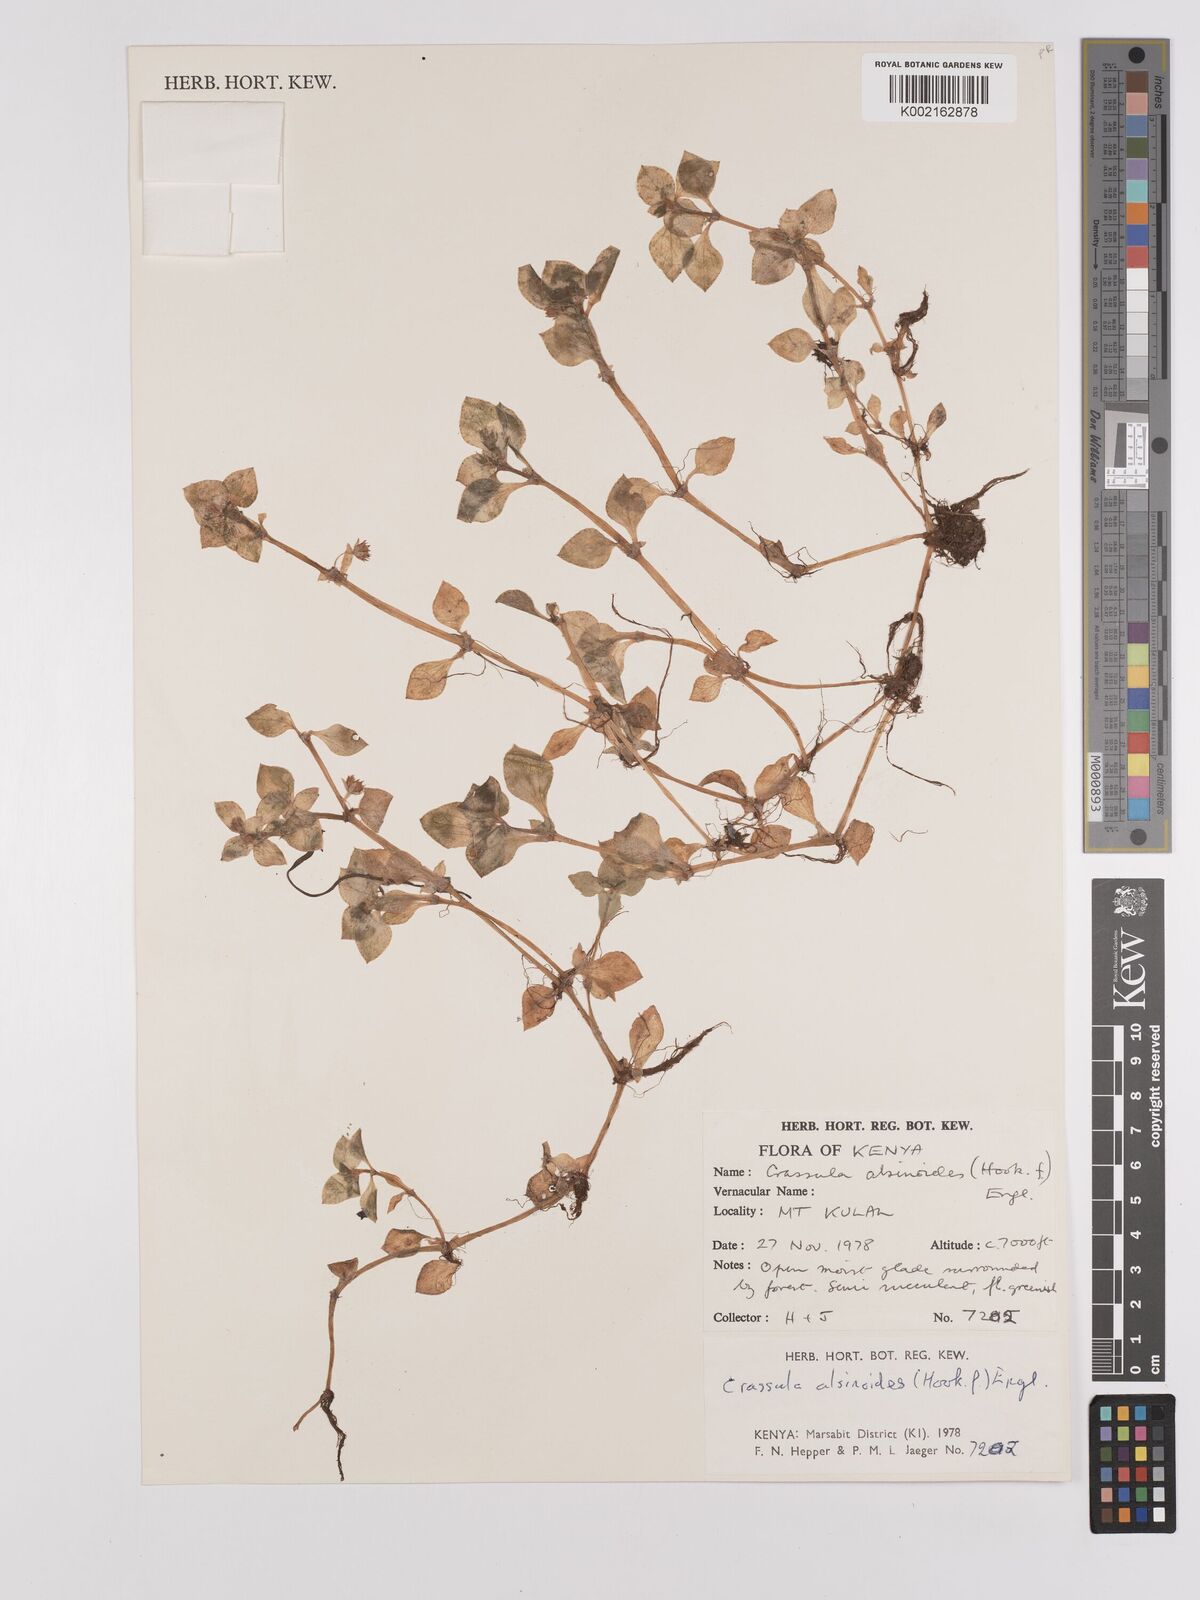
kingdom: Plantae
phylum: Tracheophyta
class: Magnoliopsida
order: Saxifragales
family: Crassulaceae
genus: Crassula
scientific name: Crassula alsinoides
